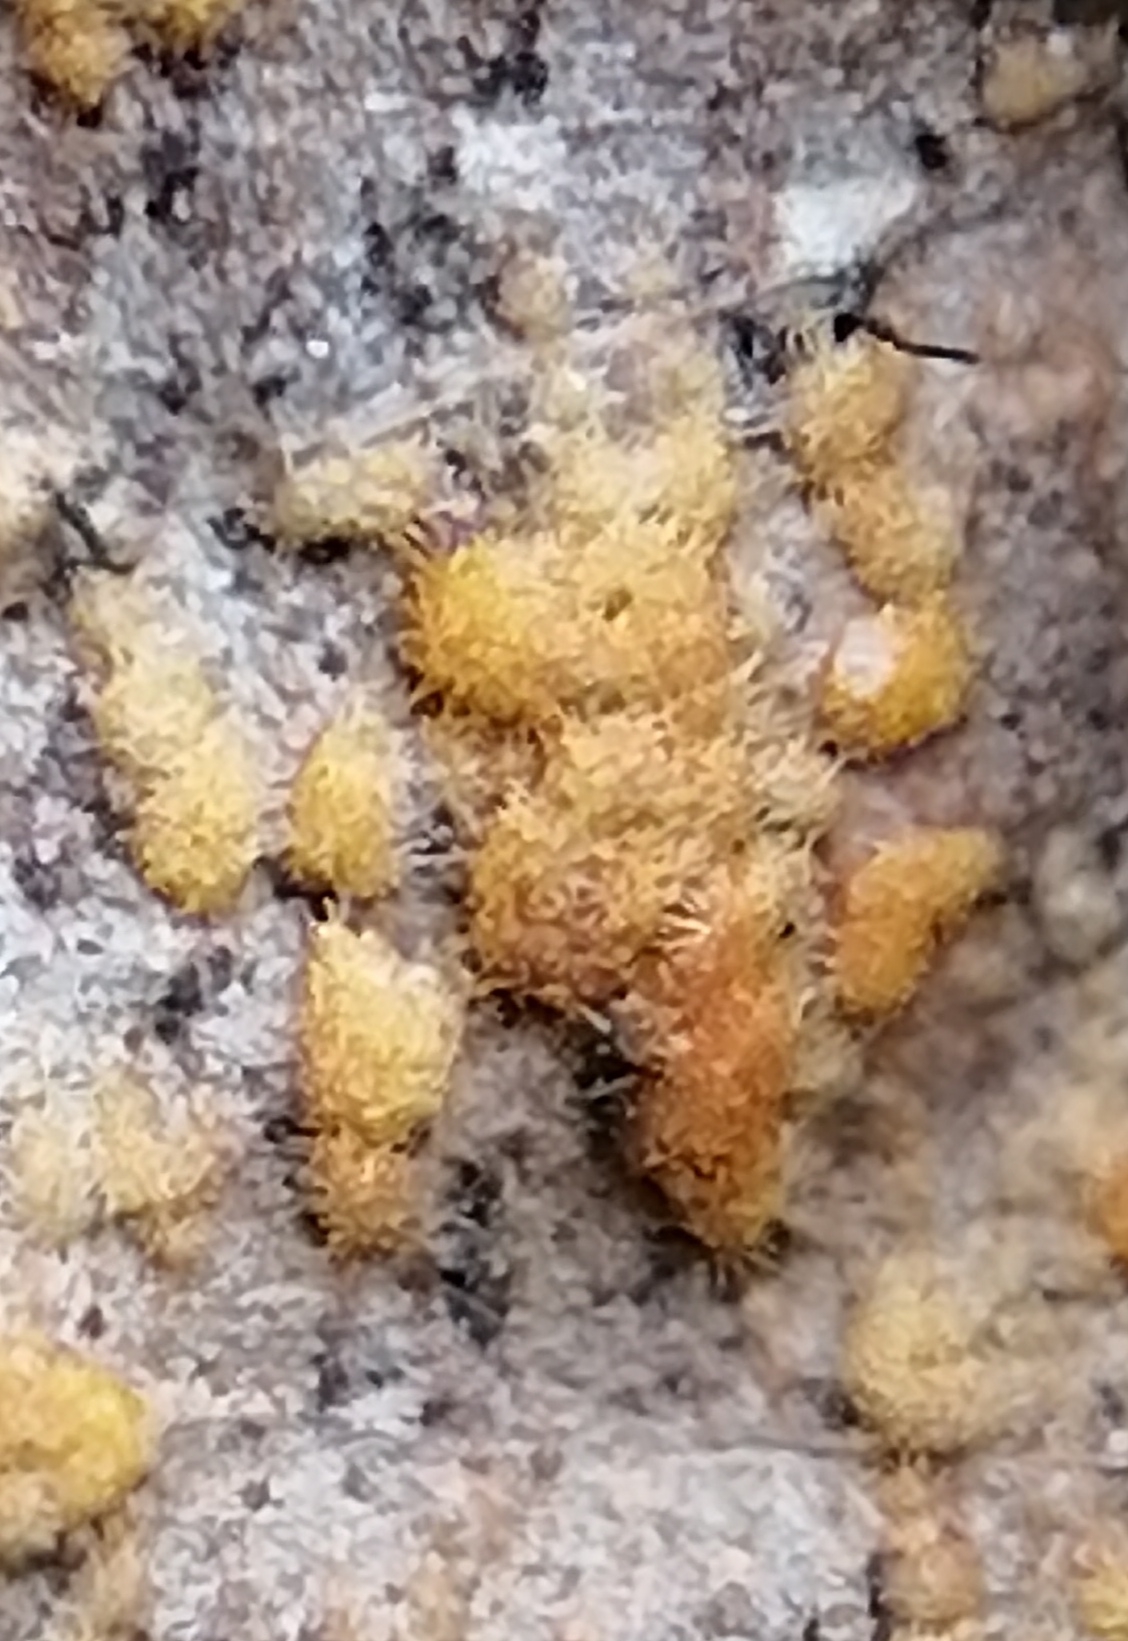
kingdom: Fungi
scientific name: Fungi
